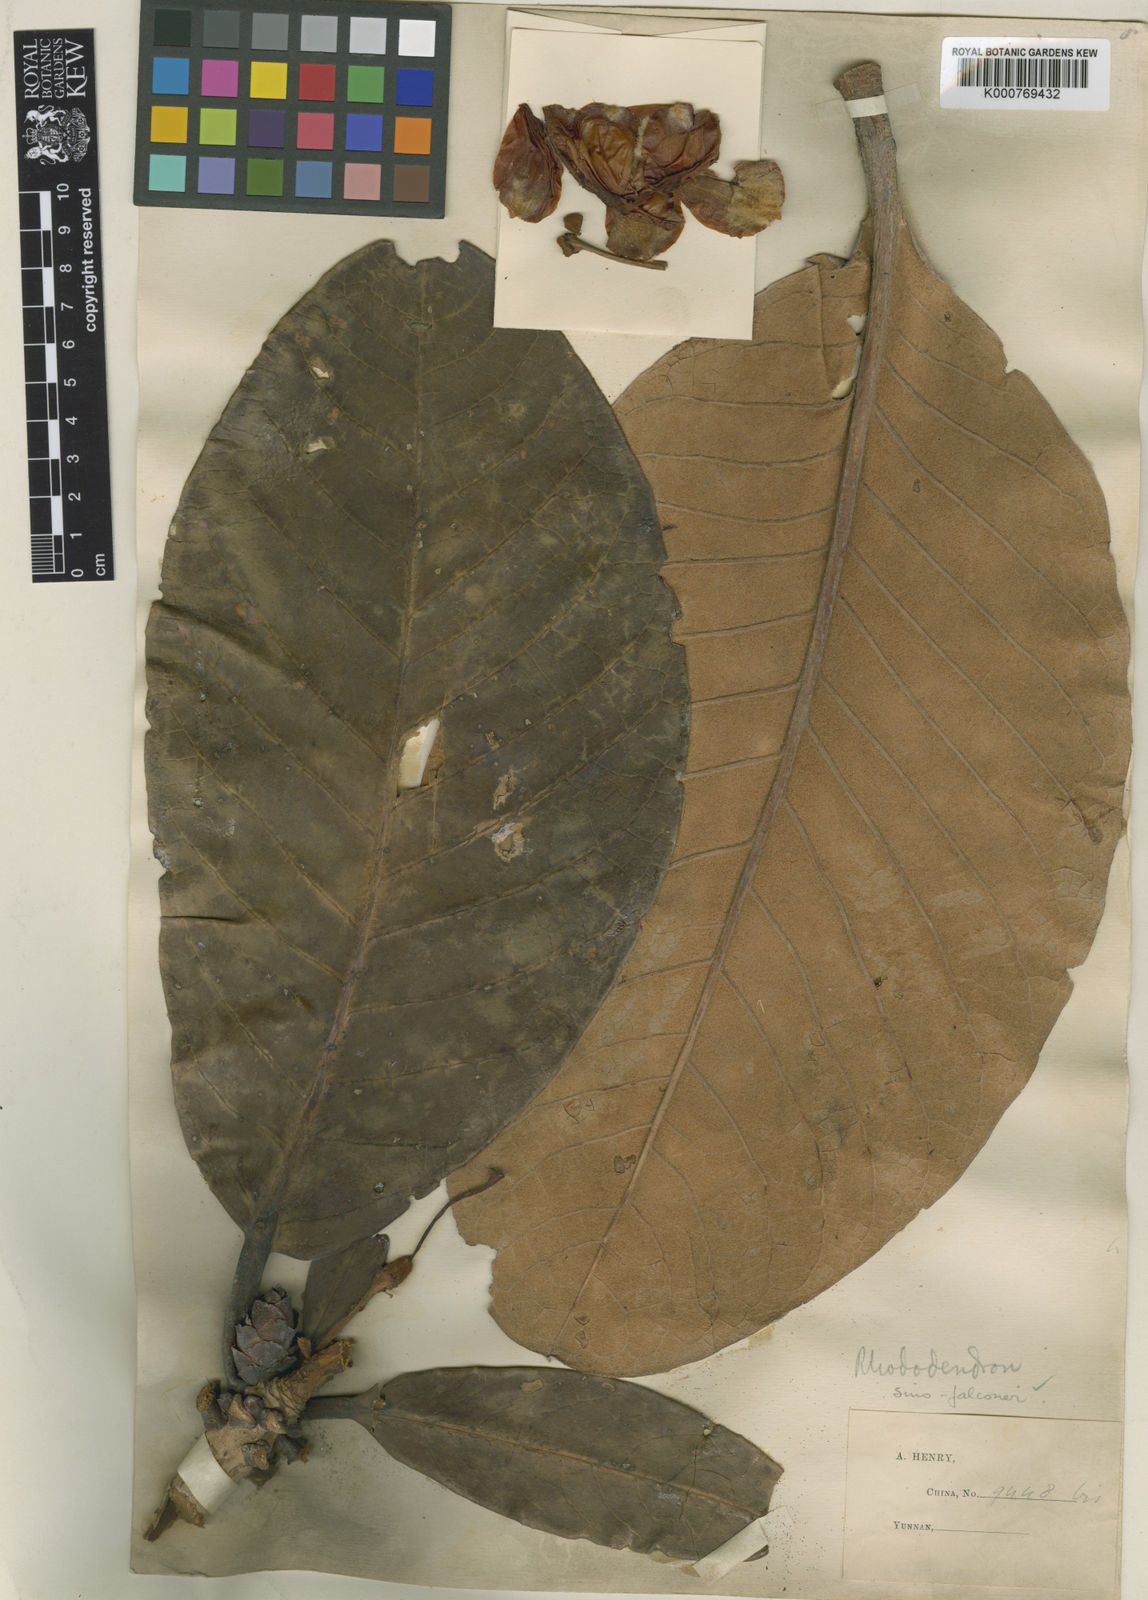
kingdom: Plantae
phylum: Tracheophyta
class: Magnoliopsida
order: Ericales
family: Ericaceae
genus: Rhododendron
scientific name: Rhododendron sinofalconeri
